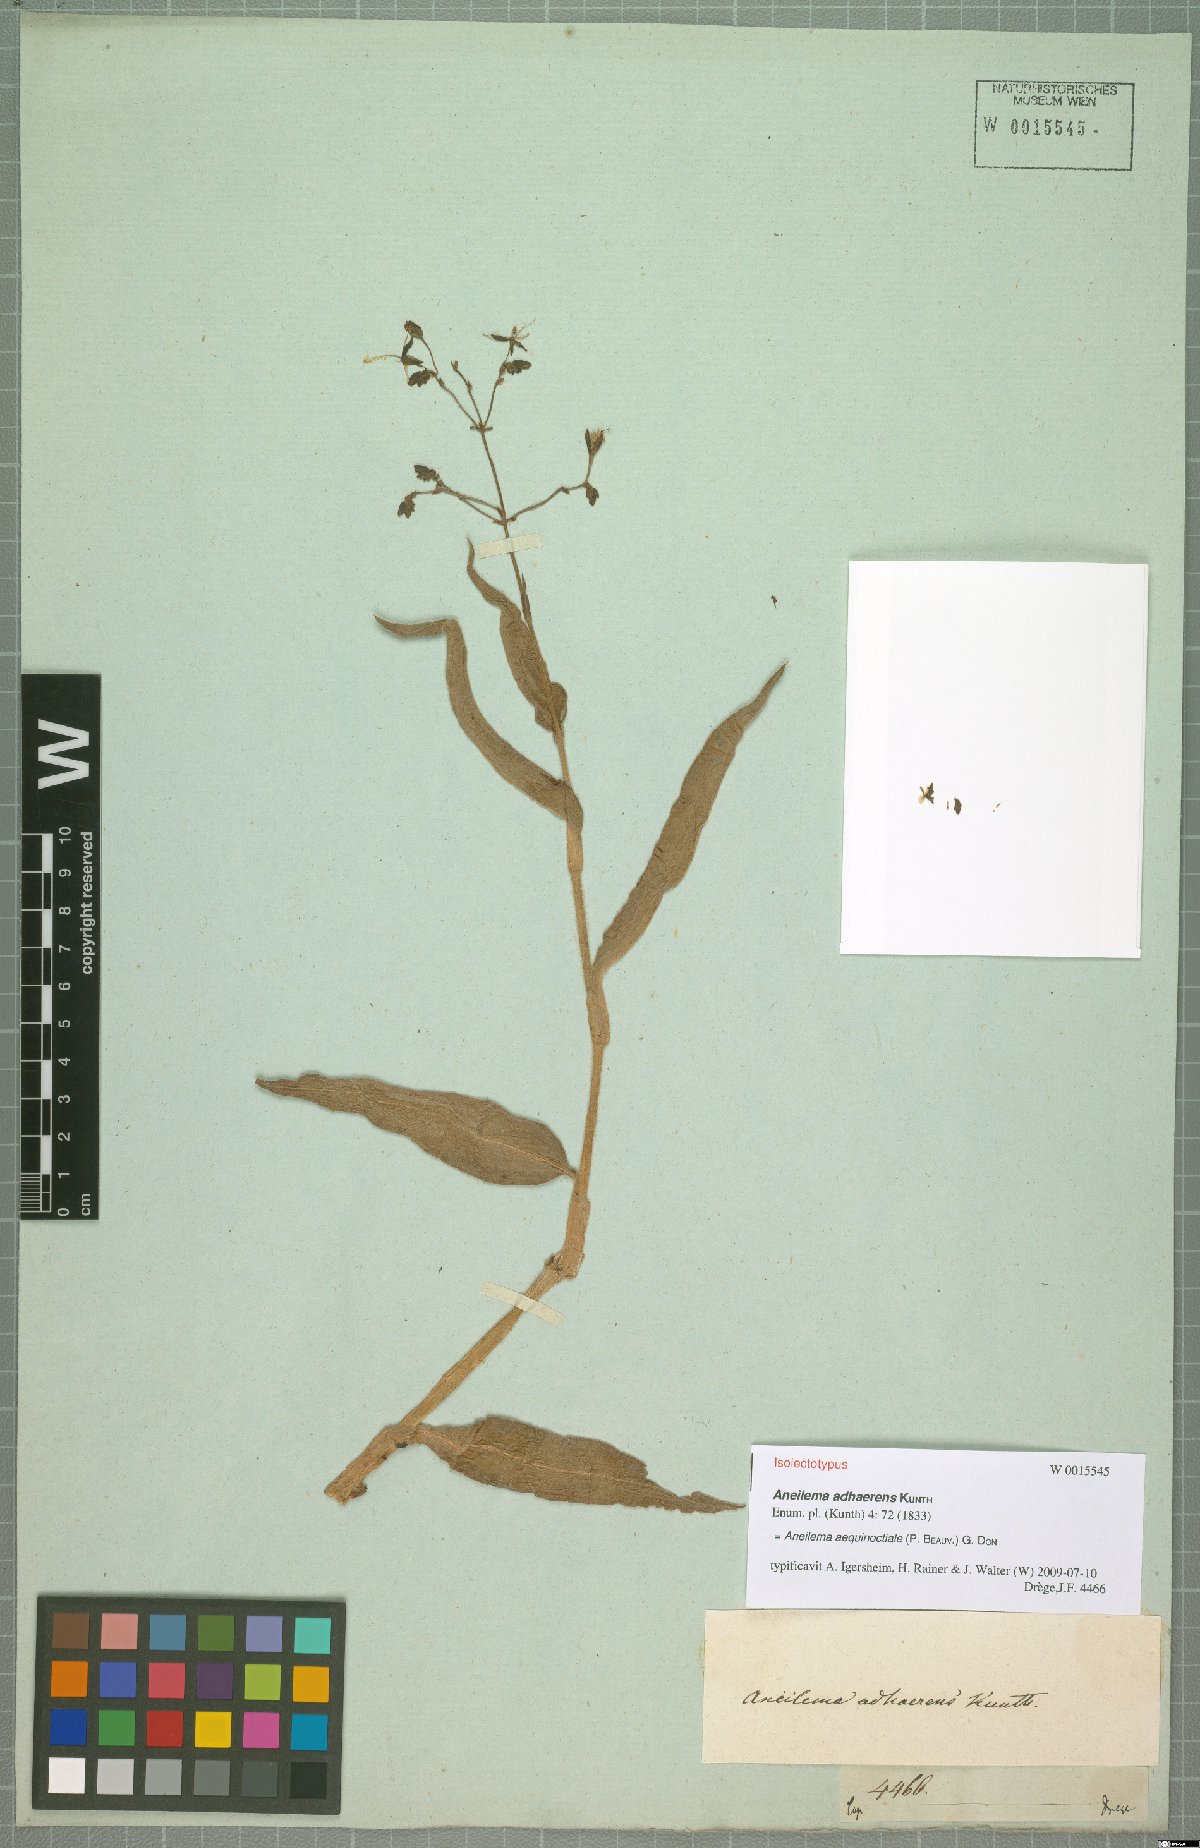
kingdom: Plantae
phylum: Tracheophyta
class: Liliopsida
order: Commelinales
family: Commelinaceae
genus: Aneilema
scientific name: Aneilema aequinoctiale
